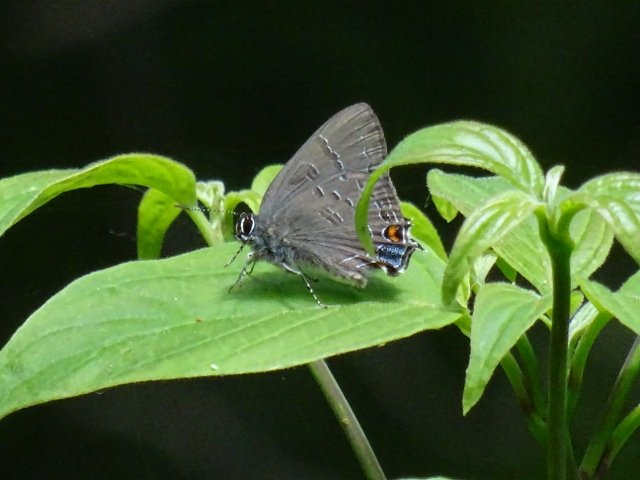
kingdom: Animalia
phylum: Arthropoda
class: Insecta
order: Lepidoptera
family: Lycaenidae
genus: Satyrium
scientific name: Satyrium calanus
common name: Banded Hairstreak
